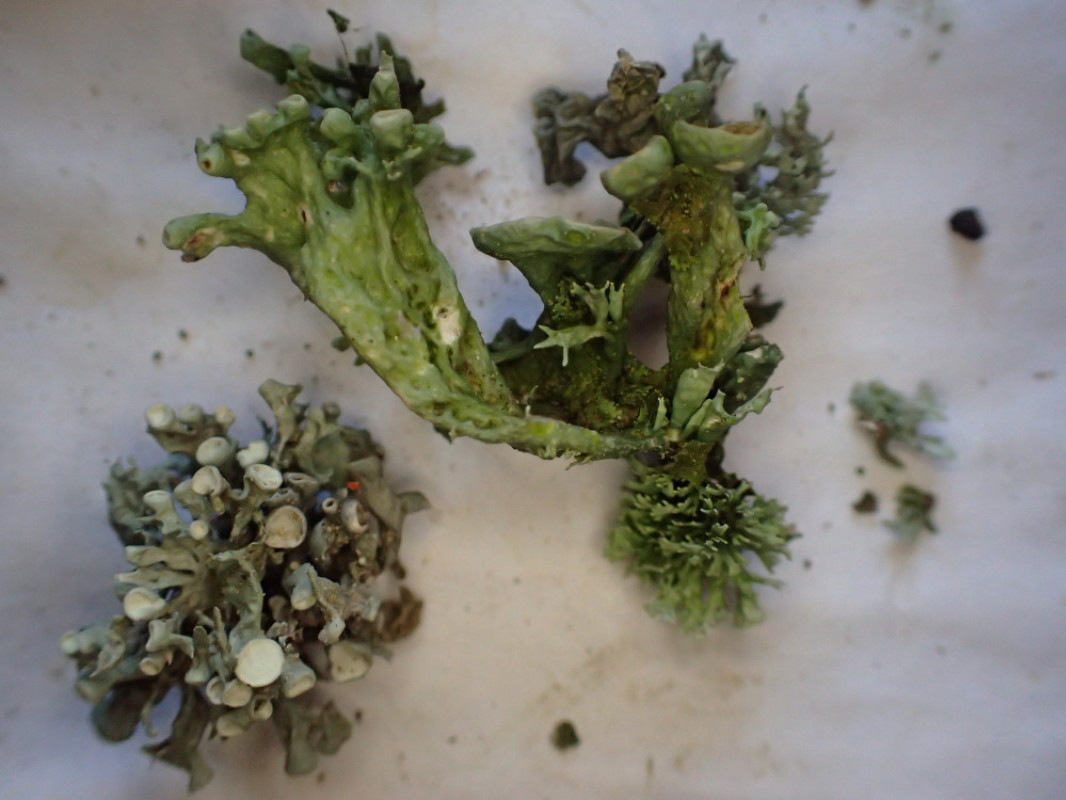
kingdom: Fungi
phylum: Ascomycota
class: Lecanoromycetes
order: Lecanorales
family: Ramalinaceae
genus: Ramalina
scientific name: Ramalina fastigiata
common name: tue-grenlav
